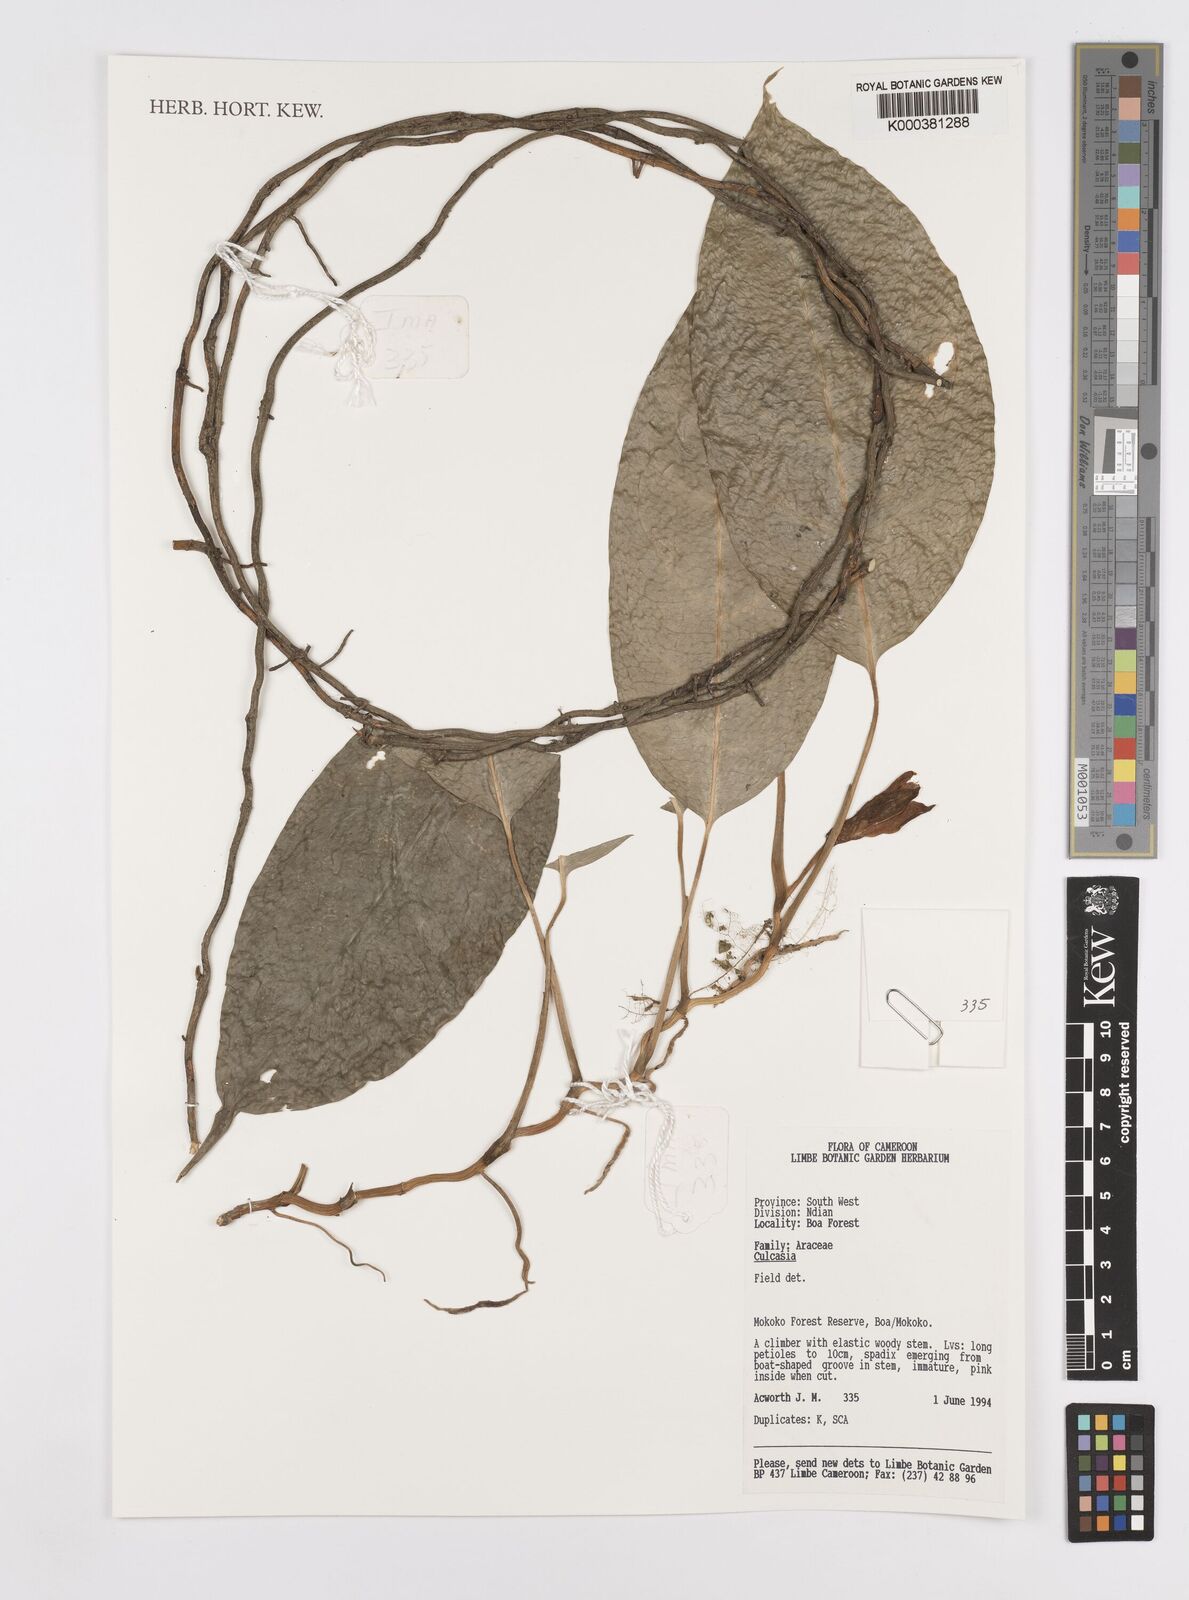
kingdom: Plantae
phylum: Tracheophyta
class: Liliopsida
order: Alismatales
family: Araceae
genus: Culcasia
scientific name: Culcasia
